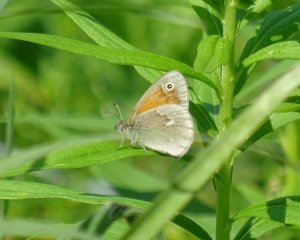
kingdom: Animalia
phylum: Arthropoda
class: Insecta
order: Lepidoptera
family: Nymphalidae
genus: Coenonympha
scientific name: Coenonympha tullia
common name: Large Heath
